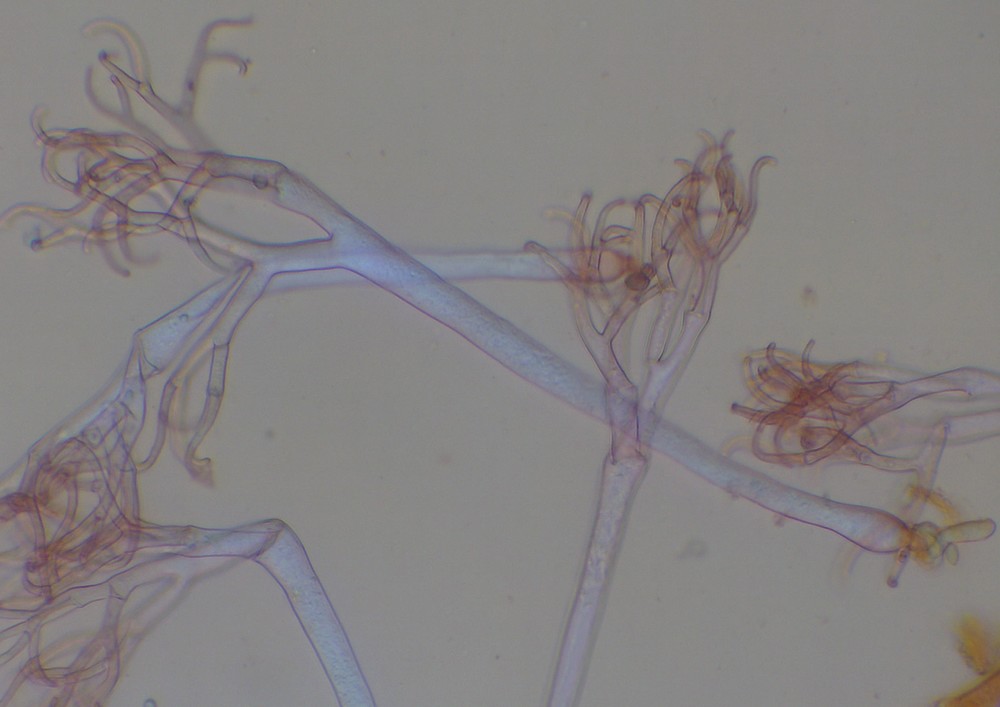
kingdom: Chromista
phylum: Oomycota
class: Peronosporea
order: Peronosporales
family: Peronosporaceae
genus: Hyaloperonospora
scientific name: Hyaloperonospora sisymbrii-loeselii
